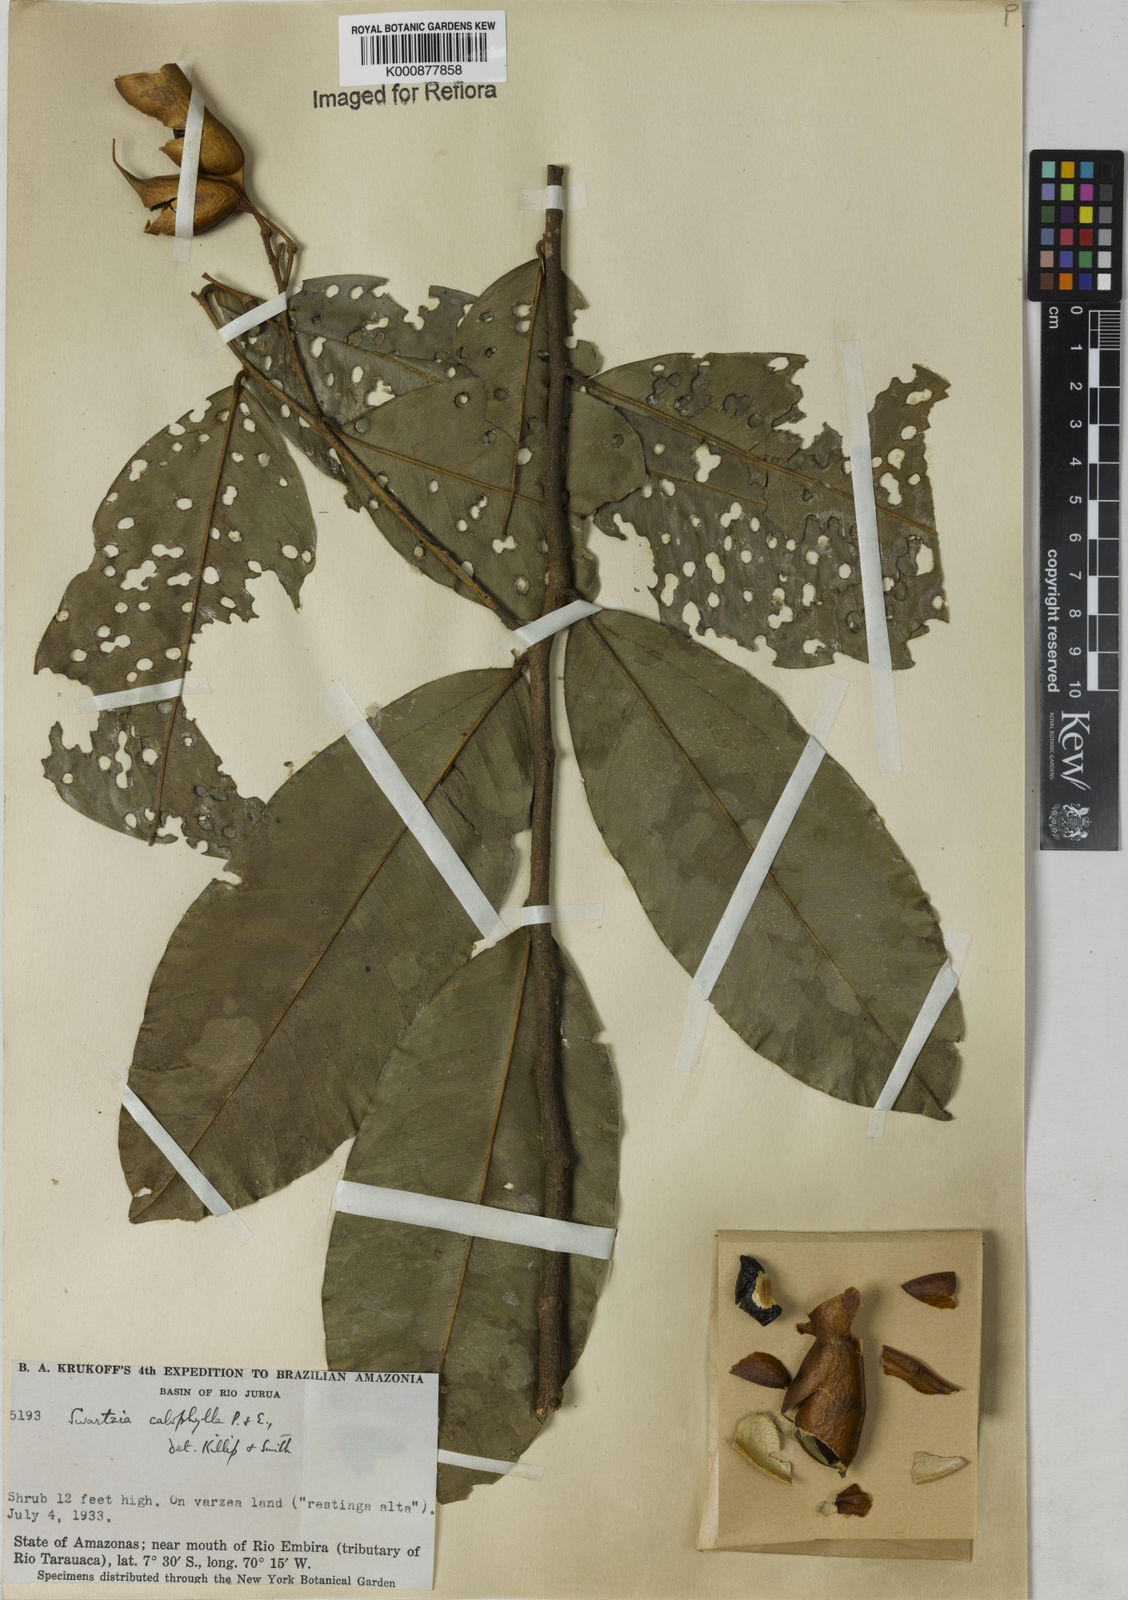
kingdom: Plantae
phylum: Tracheophyta
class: Magnoliopsida
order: Fabales
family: Fabaceae
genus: Swartzia
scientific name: Swartzia simplex
